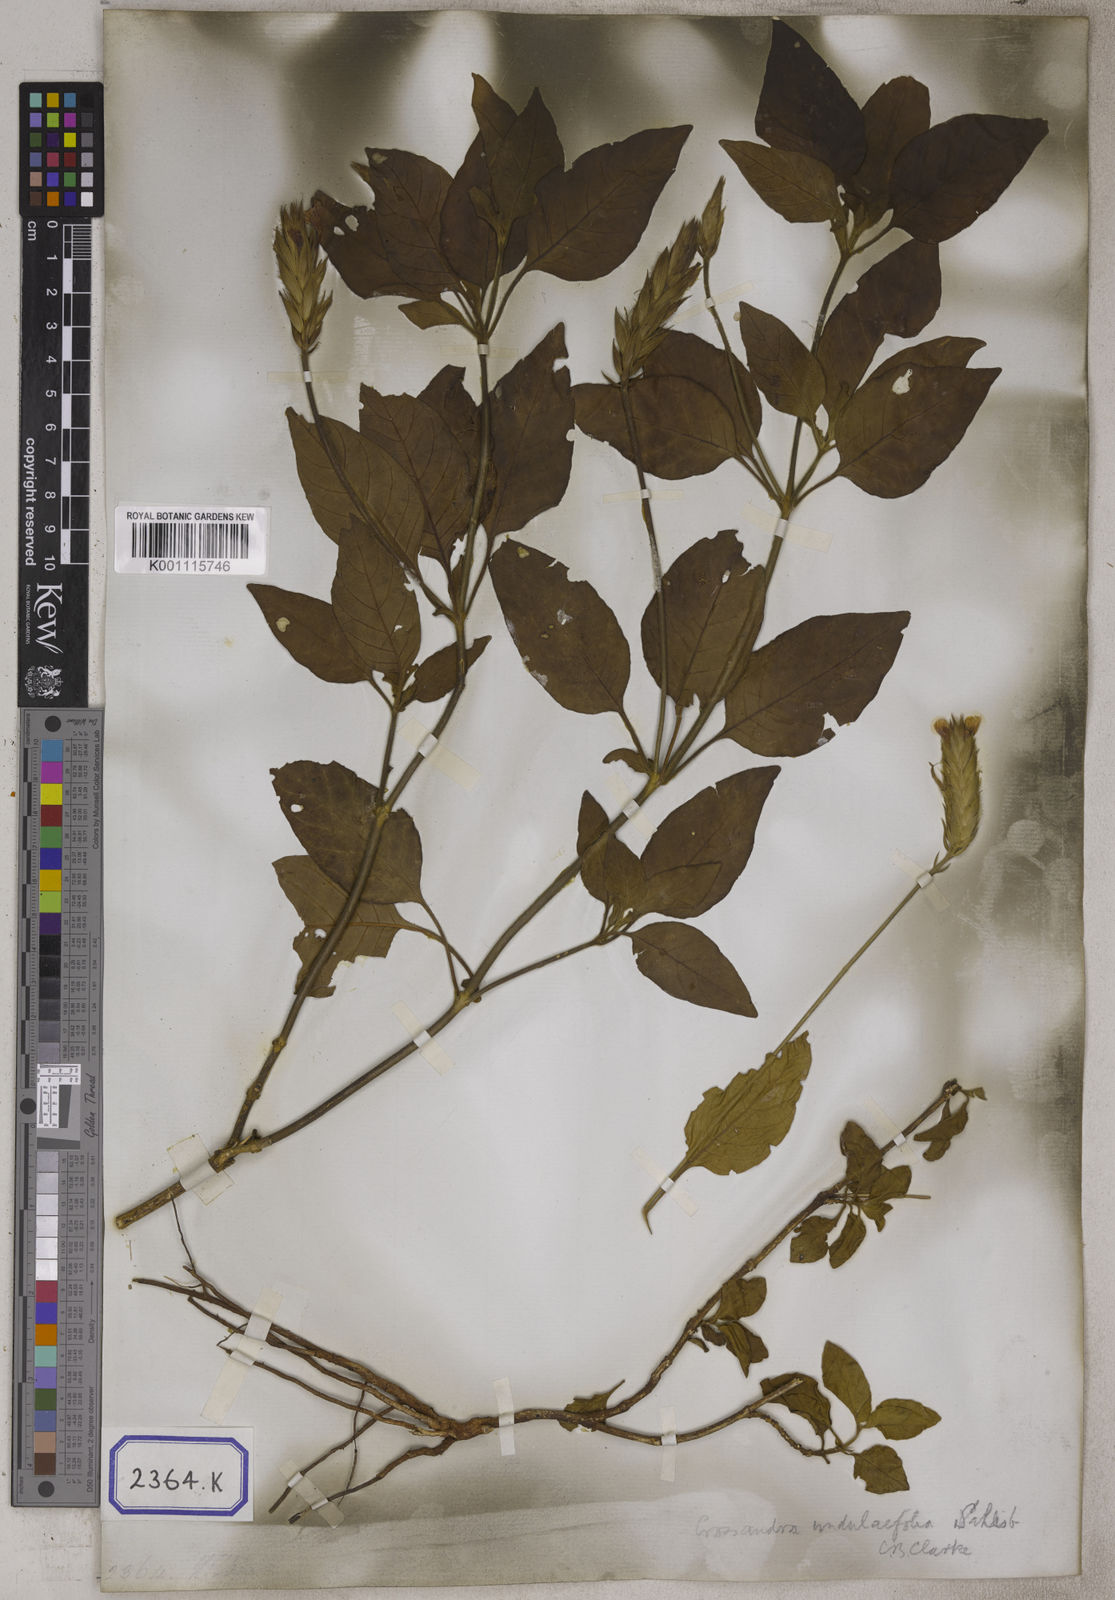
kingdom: Plantae
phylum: Tracheophyta
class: Magnoliopsida
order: Lamiales
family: Acanthaceae
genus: Crossandra
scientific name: Crossandra infundibuliformis
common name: Firecracker-flower
